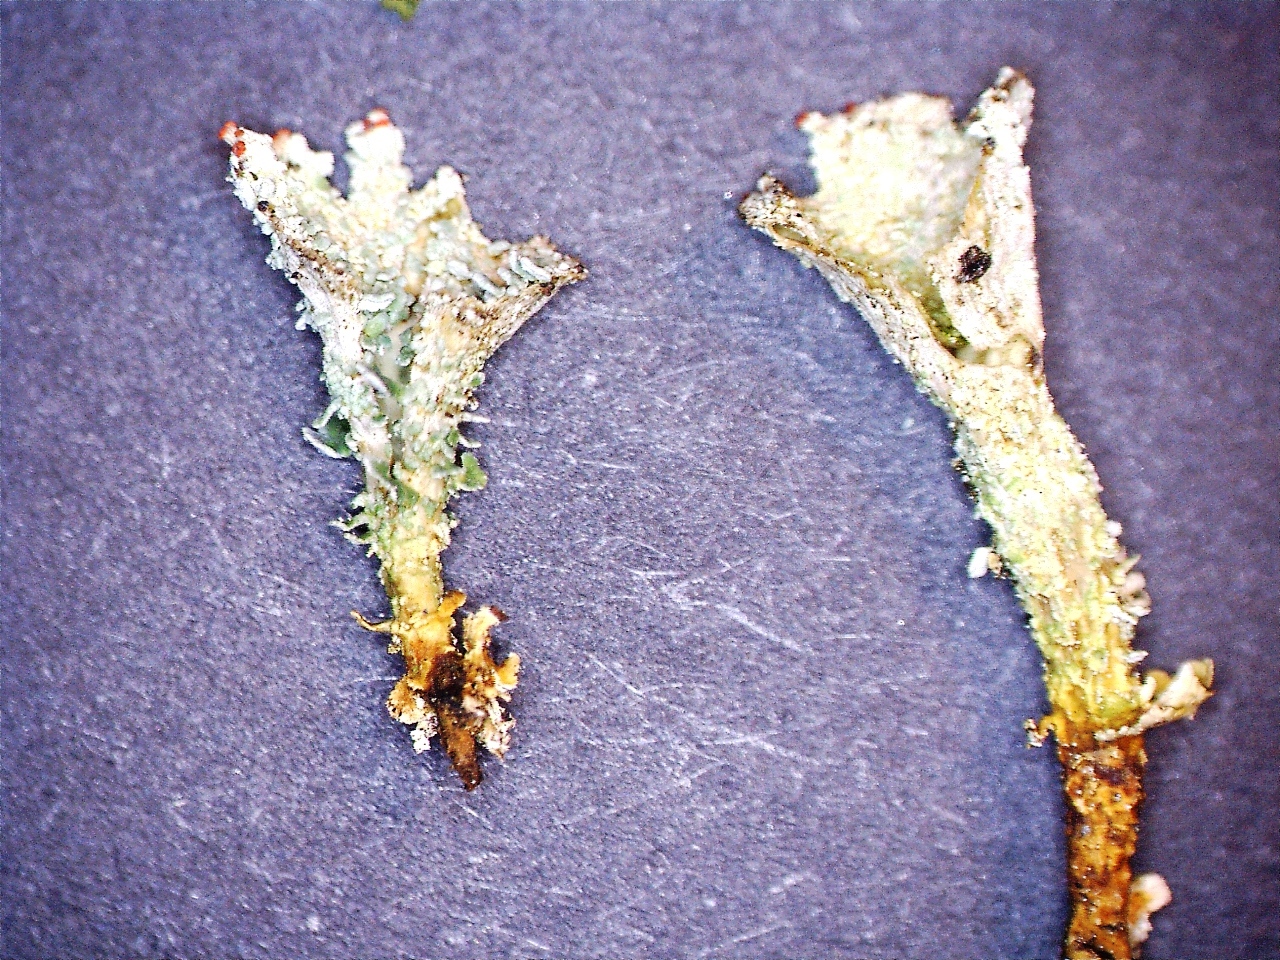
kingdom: Fungi
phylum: Ascomycota
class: Lecanoromycetes
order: Lecanorales
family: Cladoniaceae
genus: Cladonia
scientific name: Cladonia borealis
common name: nordlig bægerlav
